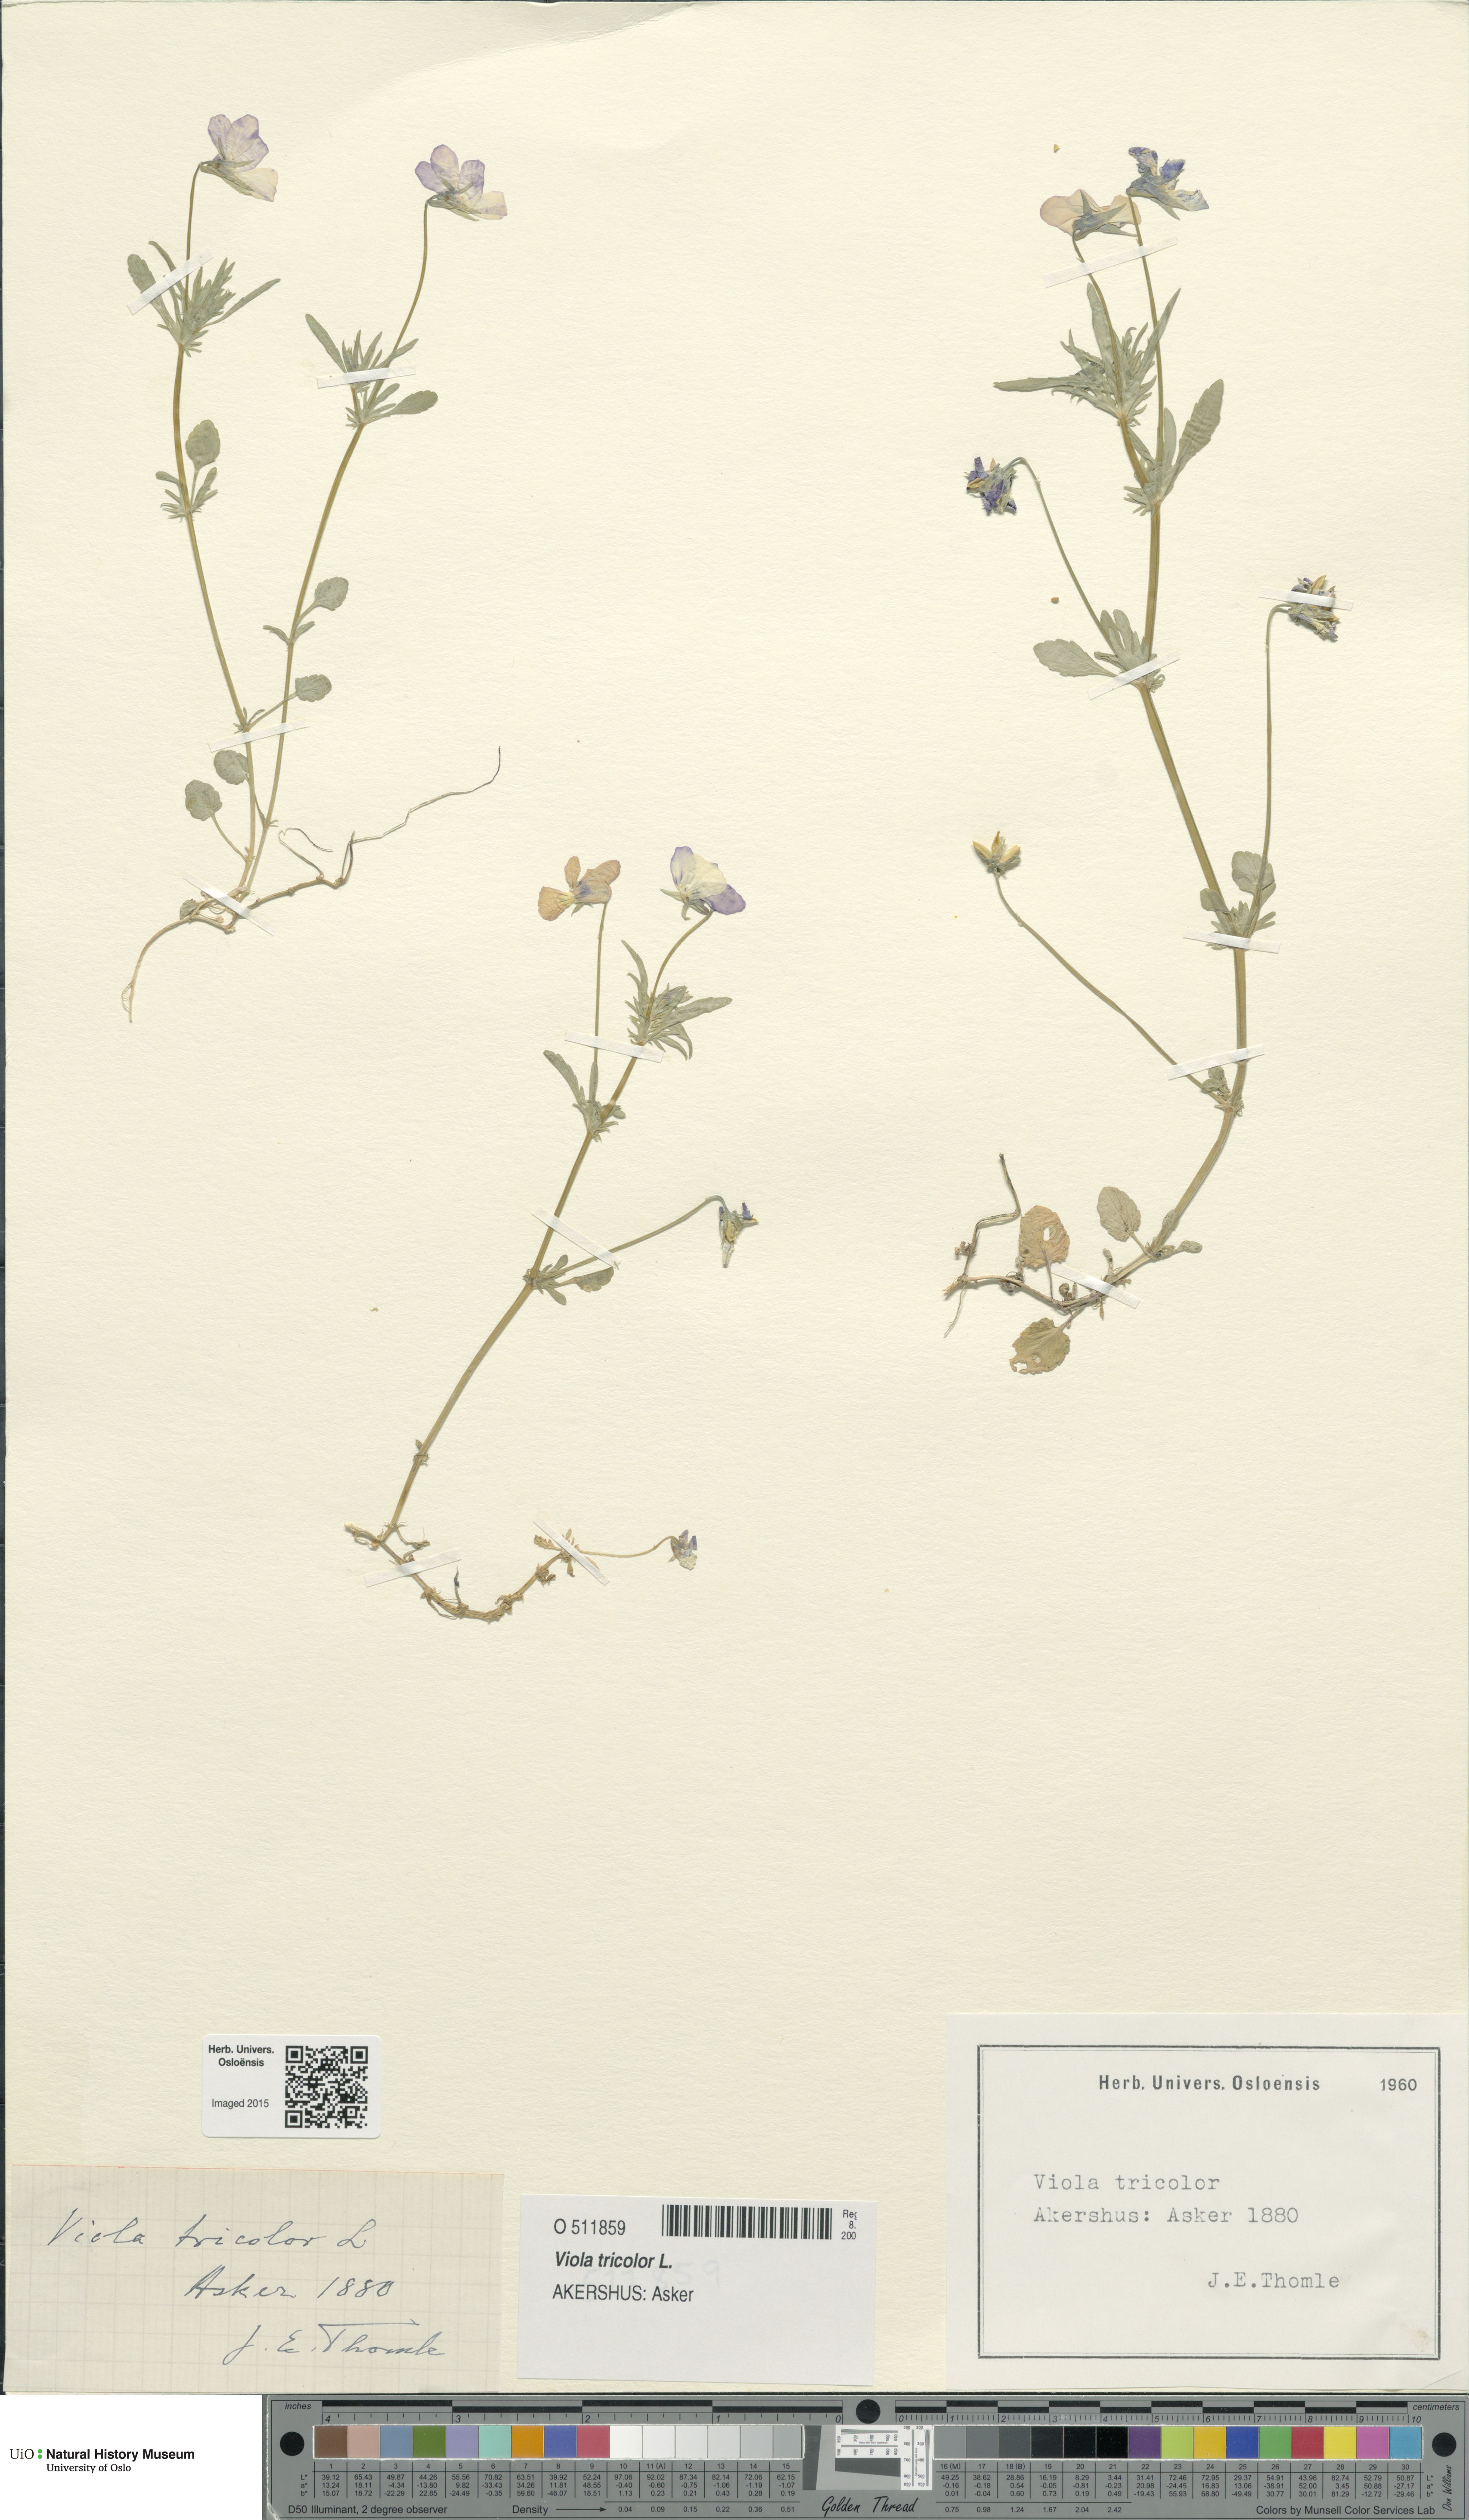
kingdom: Plantae
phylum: Tracheophyta
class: Magnoliopsida
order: Malpighiales
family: Violaceae
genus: Viola
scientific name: Viola tricolor
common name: Pansy
